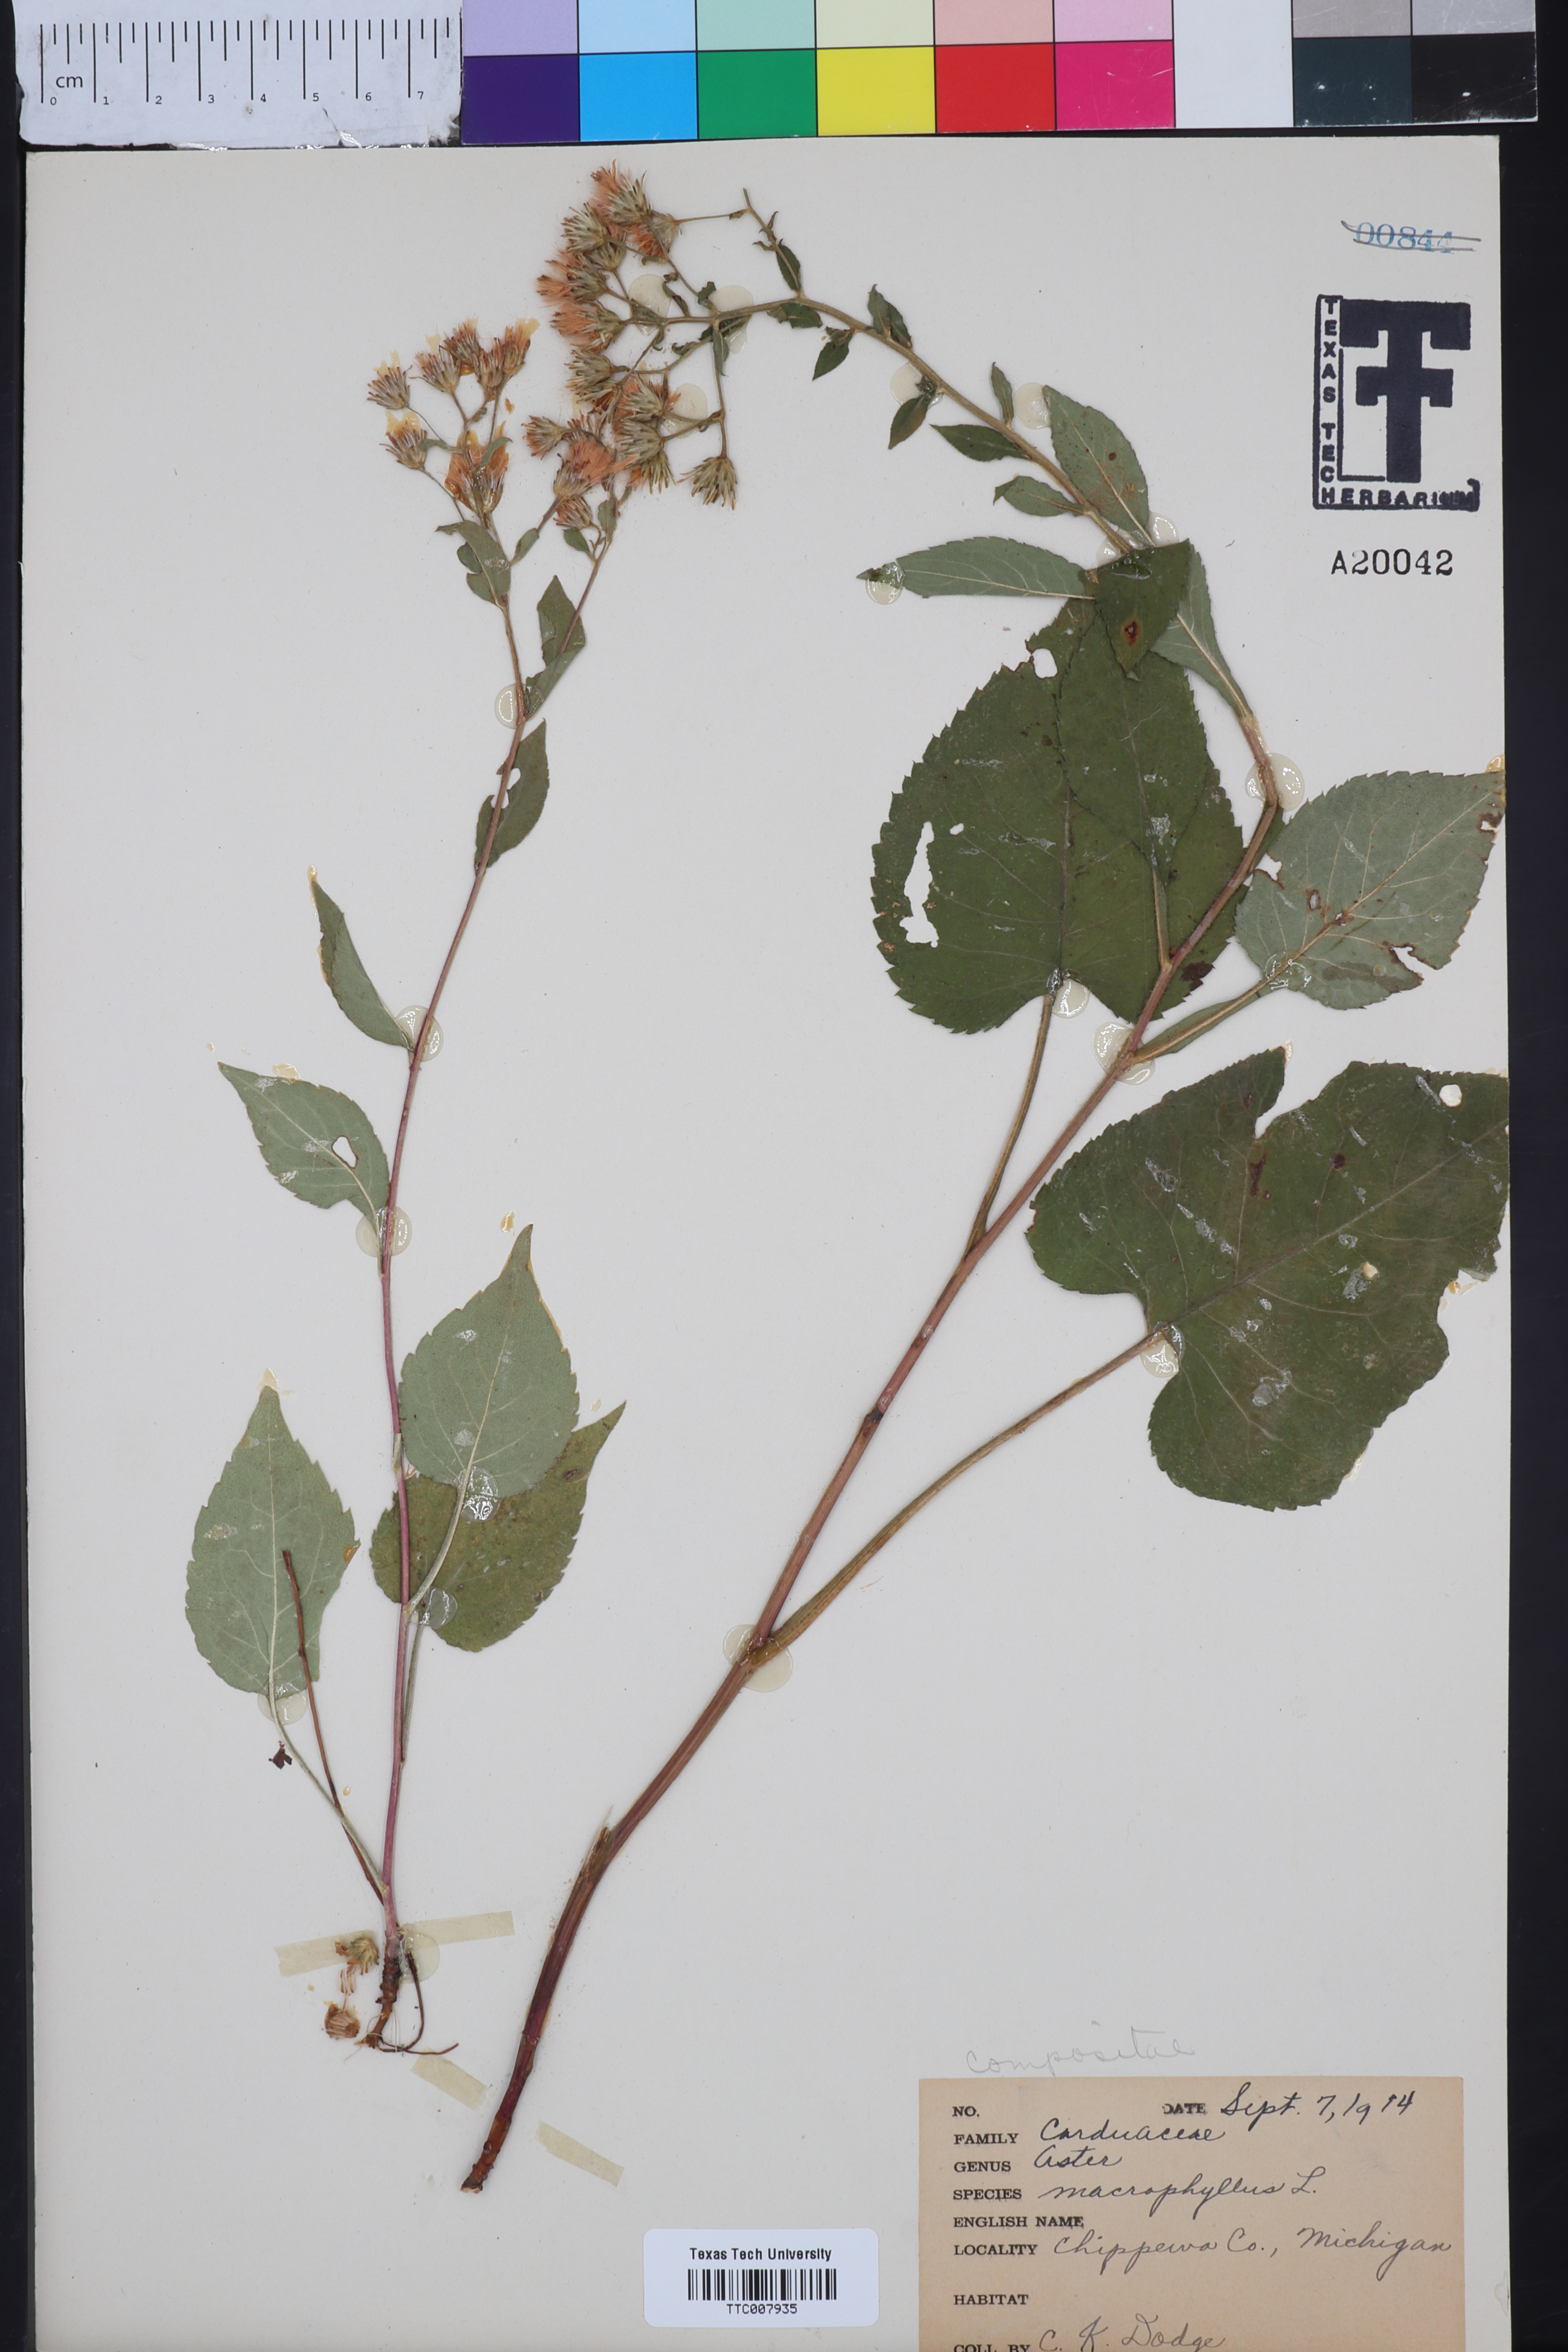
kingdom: Plantae
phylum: Tracheophyta
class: Magnoliopsida
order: Asterales
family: Asteraceae
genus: Eurybia
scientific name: Eurybia macrophylla
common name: Big-leaved aster
